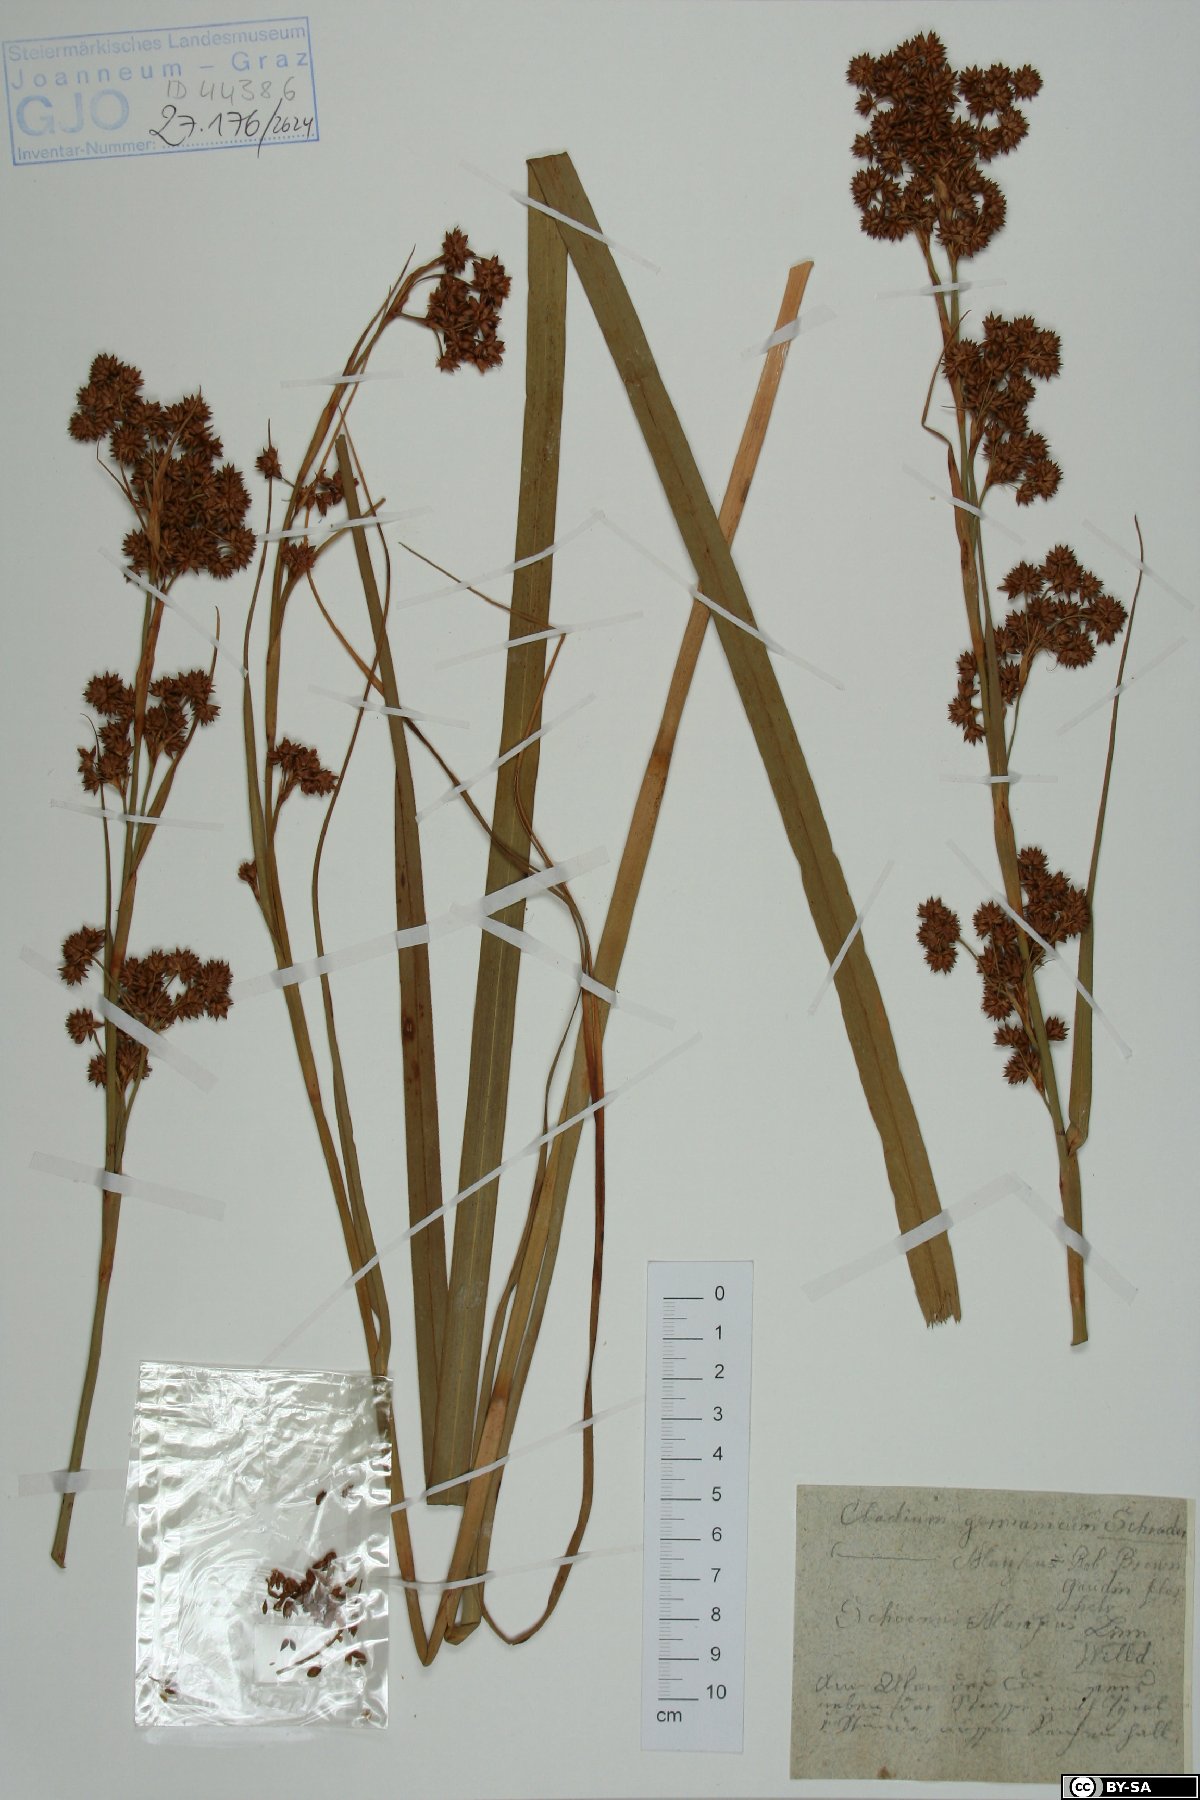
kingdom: Plantae
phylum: Tracheophyta
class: Liliopsida
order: Poales
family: Cyperaceae
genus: Cladium
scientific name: Cladium mariscus
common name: Great fen-sedge
